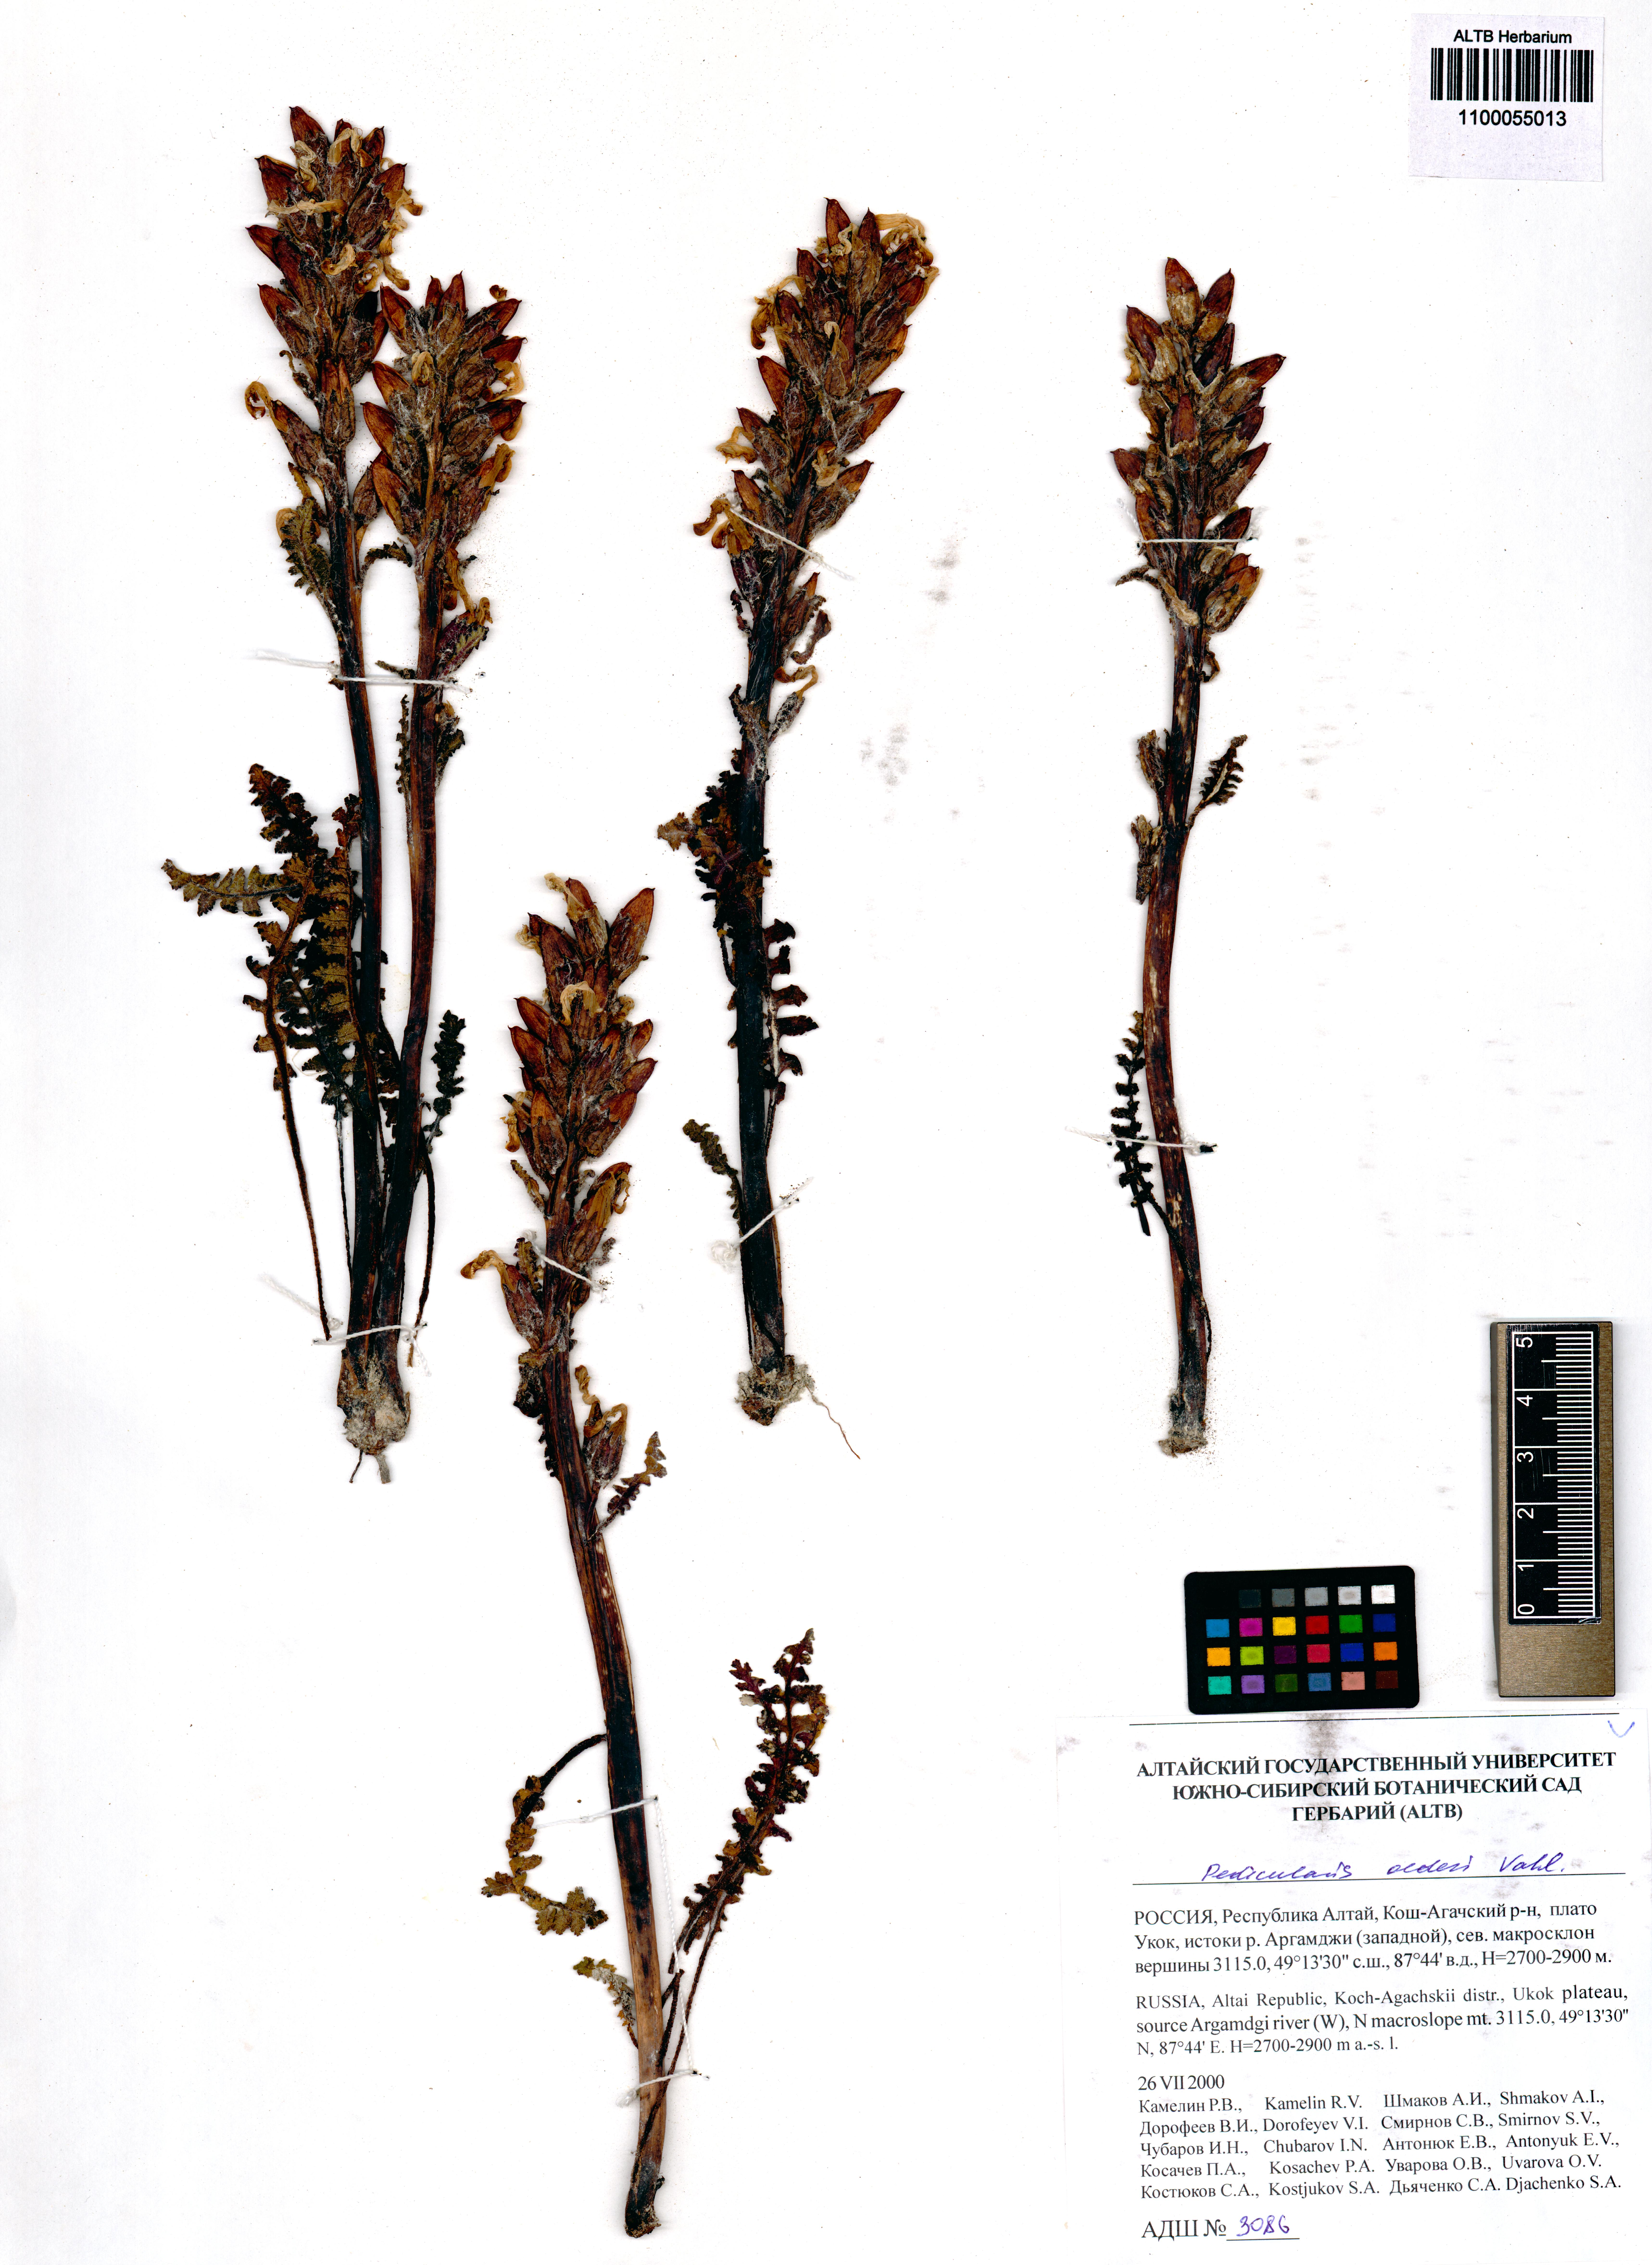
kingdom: Plantae
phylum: Tracheophyta
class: Magnoliopsida
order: Lamiales
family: Orobanchaceae
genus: Pedicularis
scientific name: Pedicularis oederi
